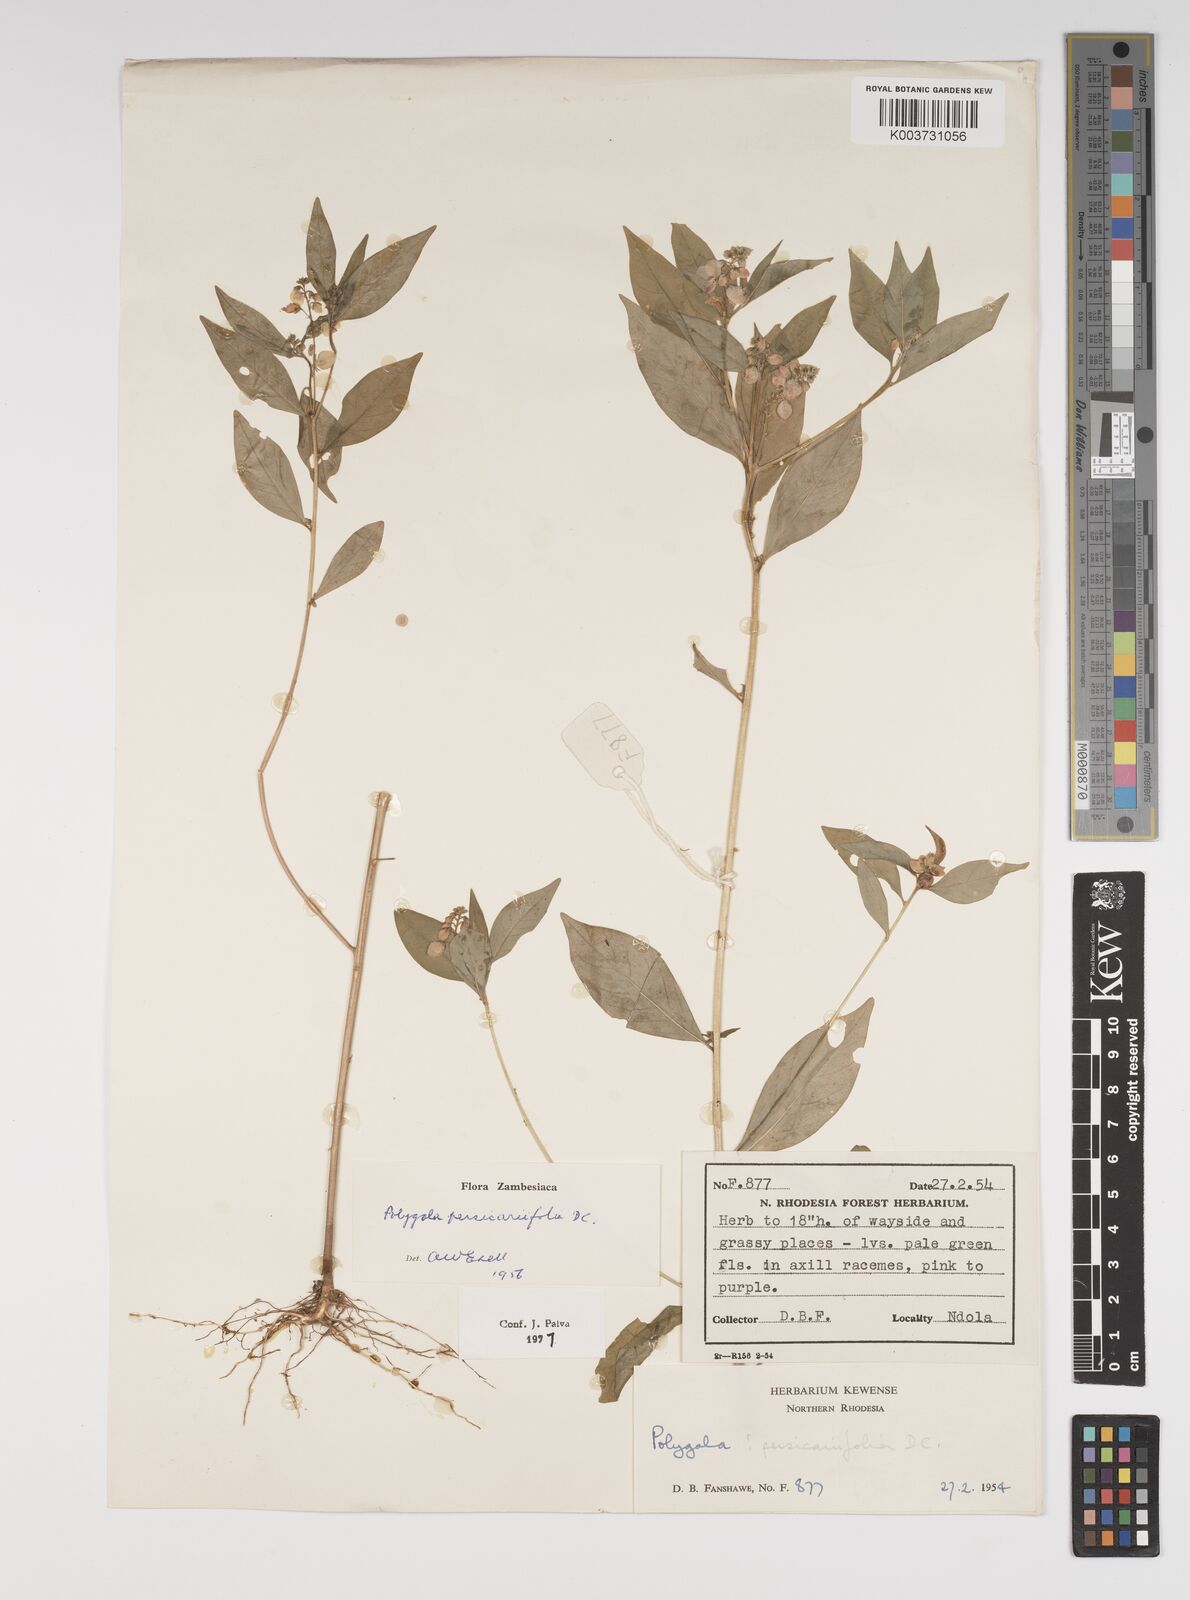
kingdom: Plantae
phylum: Tracheophyta
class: Magnoliopsida
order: Fabales
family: Polygalaceae
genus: Polygala
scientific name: Polygala persicariifolia
